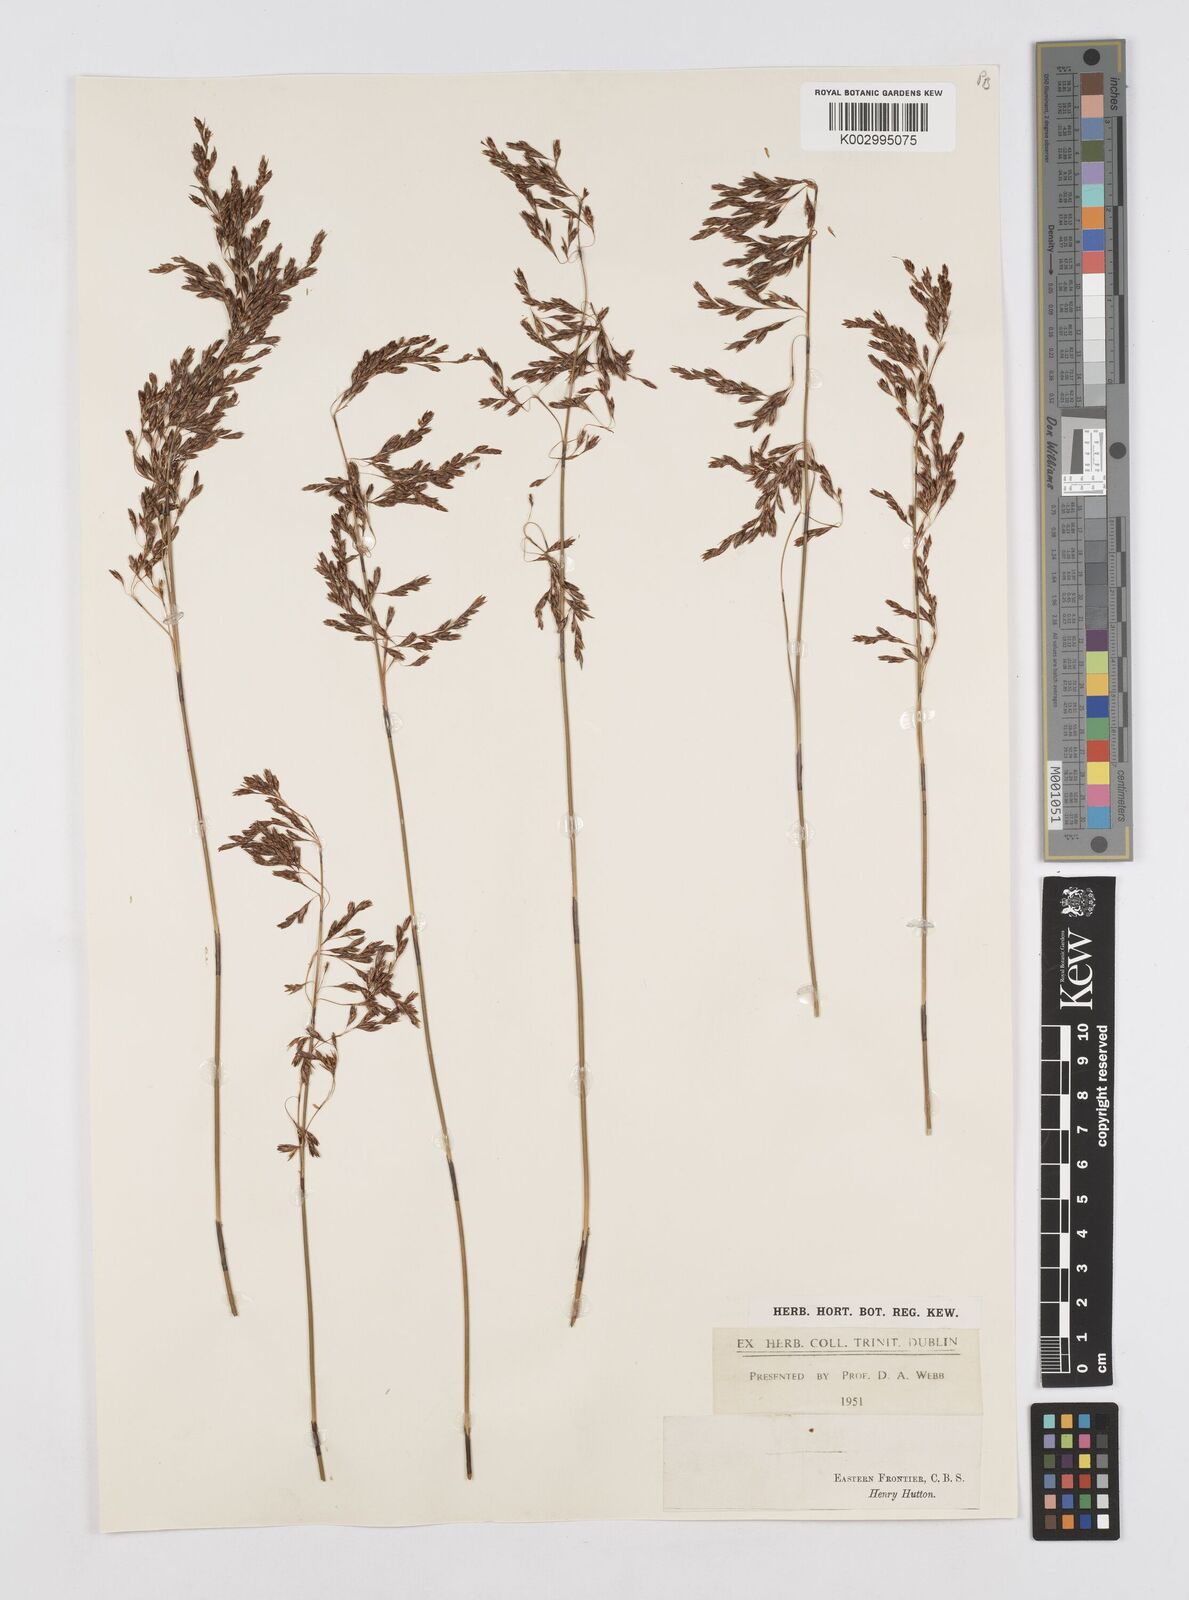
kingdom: Plantae
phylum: Tracheophyta
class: Liliopsida
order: Poales
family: Restionaceae
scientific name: Restionaceae
